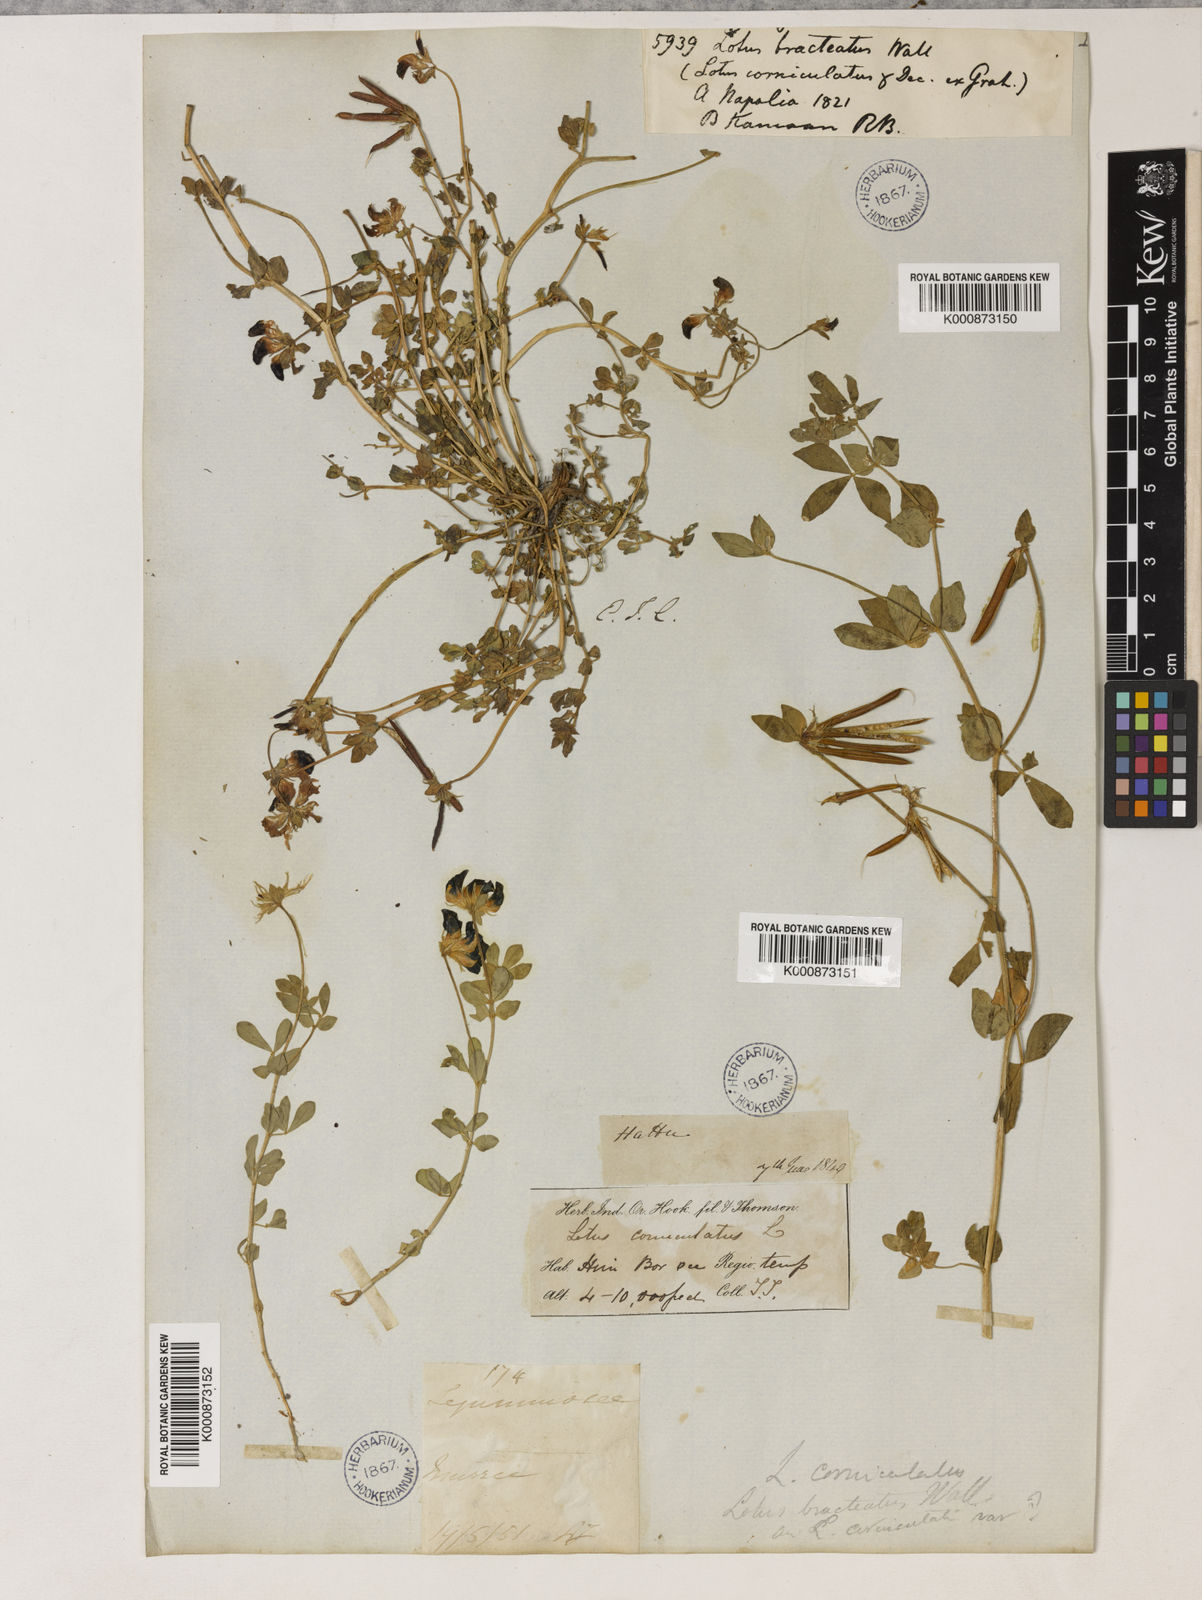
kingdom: Plantae
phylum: Tracheophyta
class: Magnoliopsida
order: Fabales
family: Fabaceae
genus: Lotus
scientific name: Lotus corniculatus
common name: Common bird's-foot-trefoil
